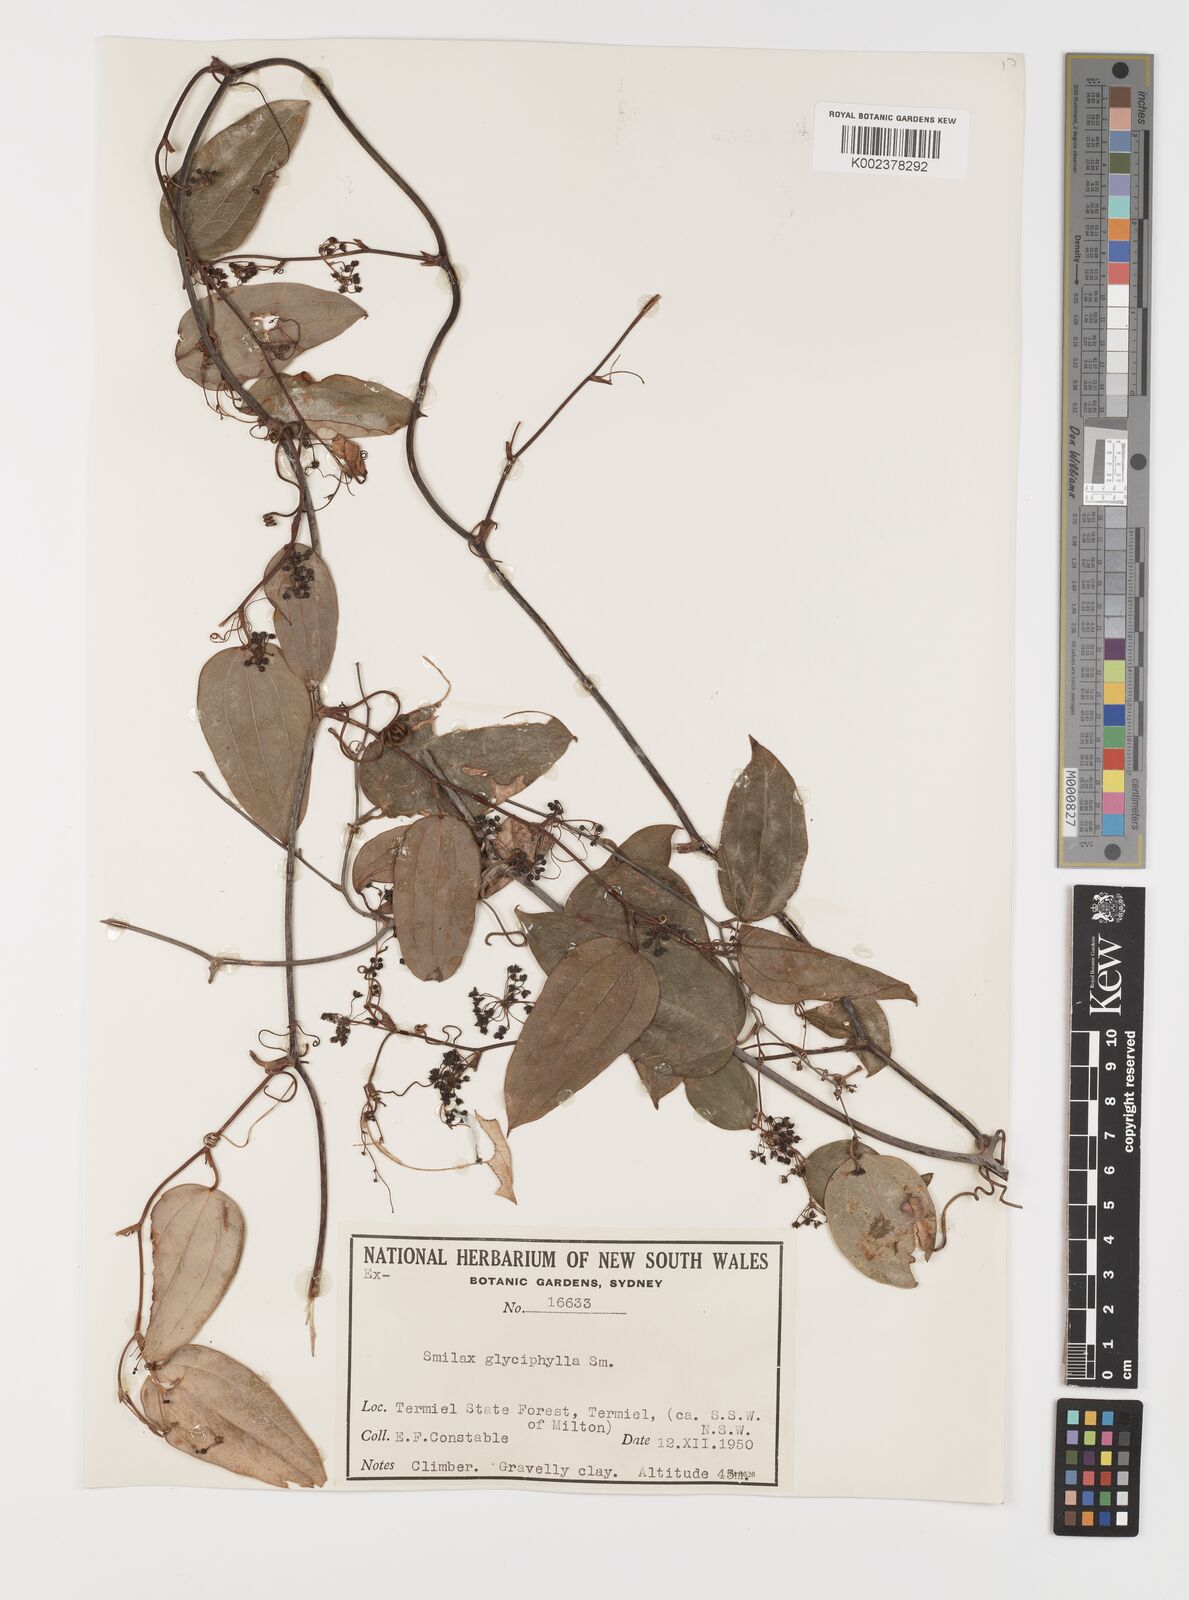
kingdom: Plantae
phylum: Tracheophyta
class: Liliopsida
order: Liliales
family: Smilacaceae
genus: Smilax
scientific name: Smilax
